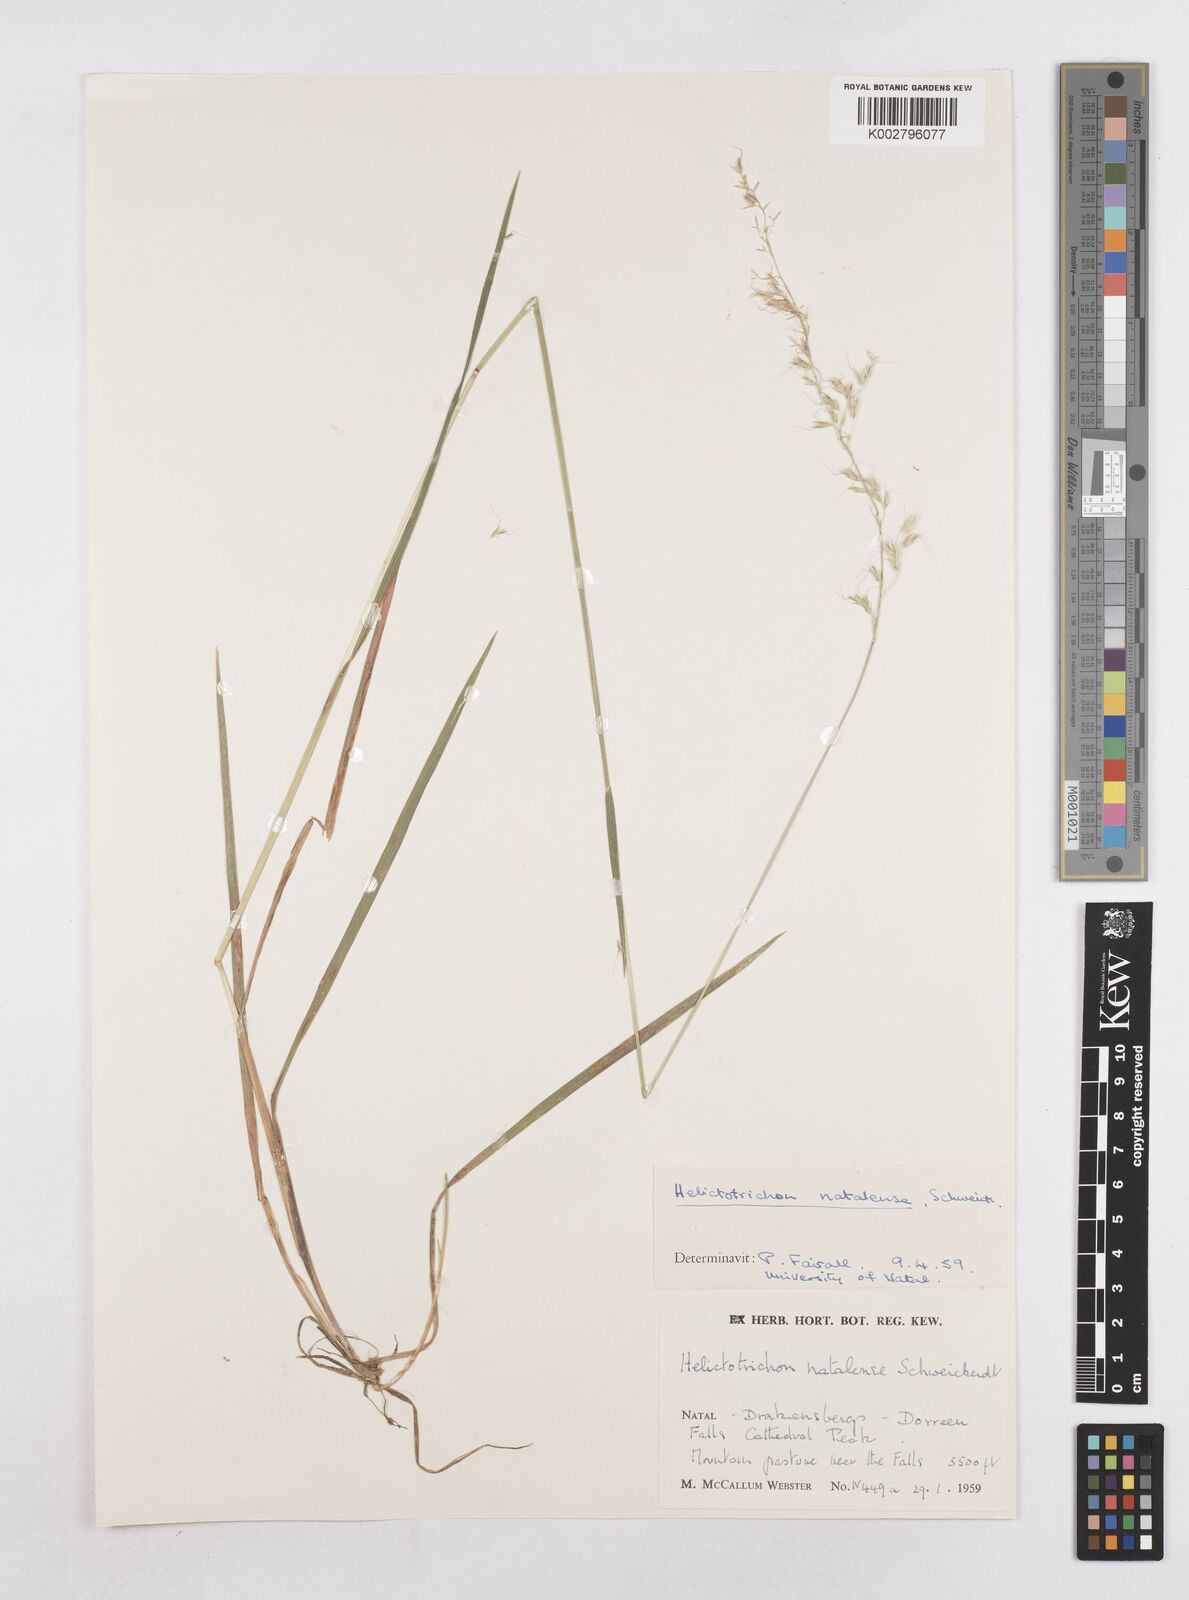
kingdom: Plantae
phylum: Tracheophyta
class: Liliopsida
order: Poales
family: Poaceae
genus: Trisetopsis
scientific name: Trisetopsis natalensis
